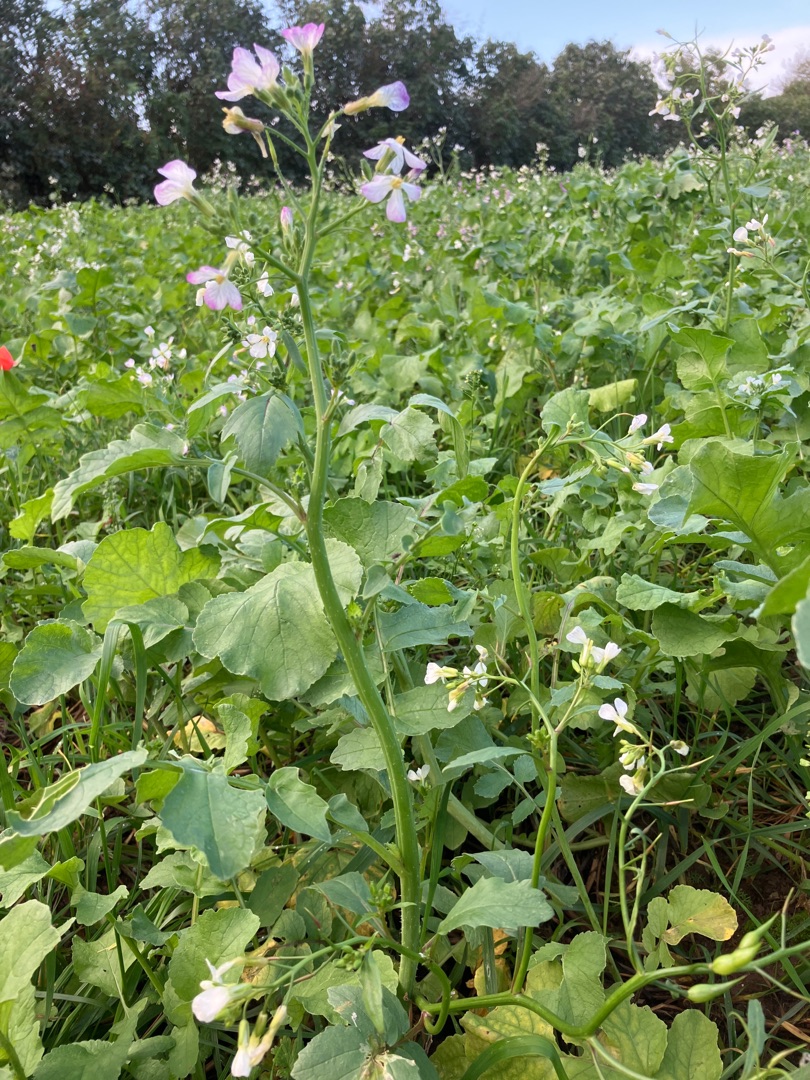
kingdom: Plantae
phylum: Tracheophyta
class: Magnoliopsida
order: Brassicales
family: Brassicaceae
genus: Raphanus
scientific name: Raphanus sativus
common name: Olie-ræddike
